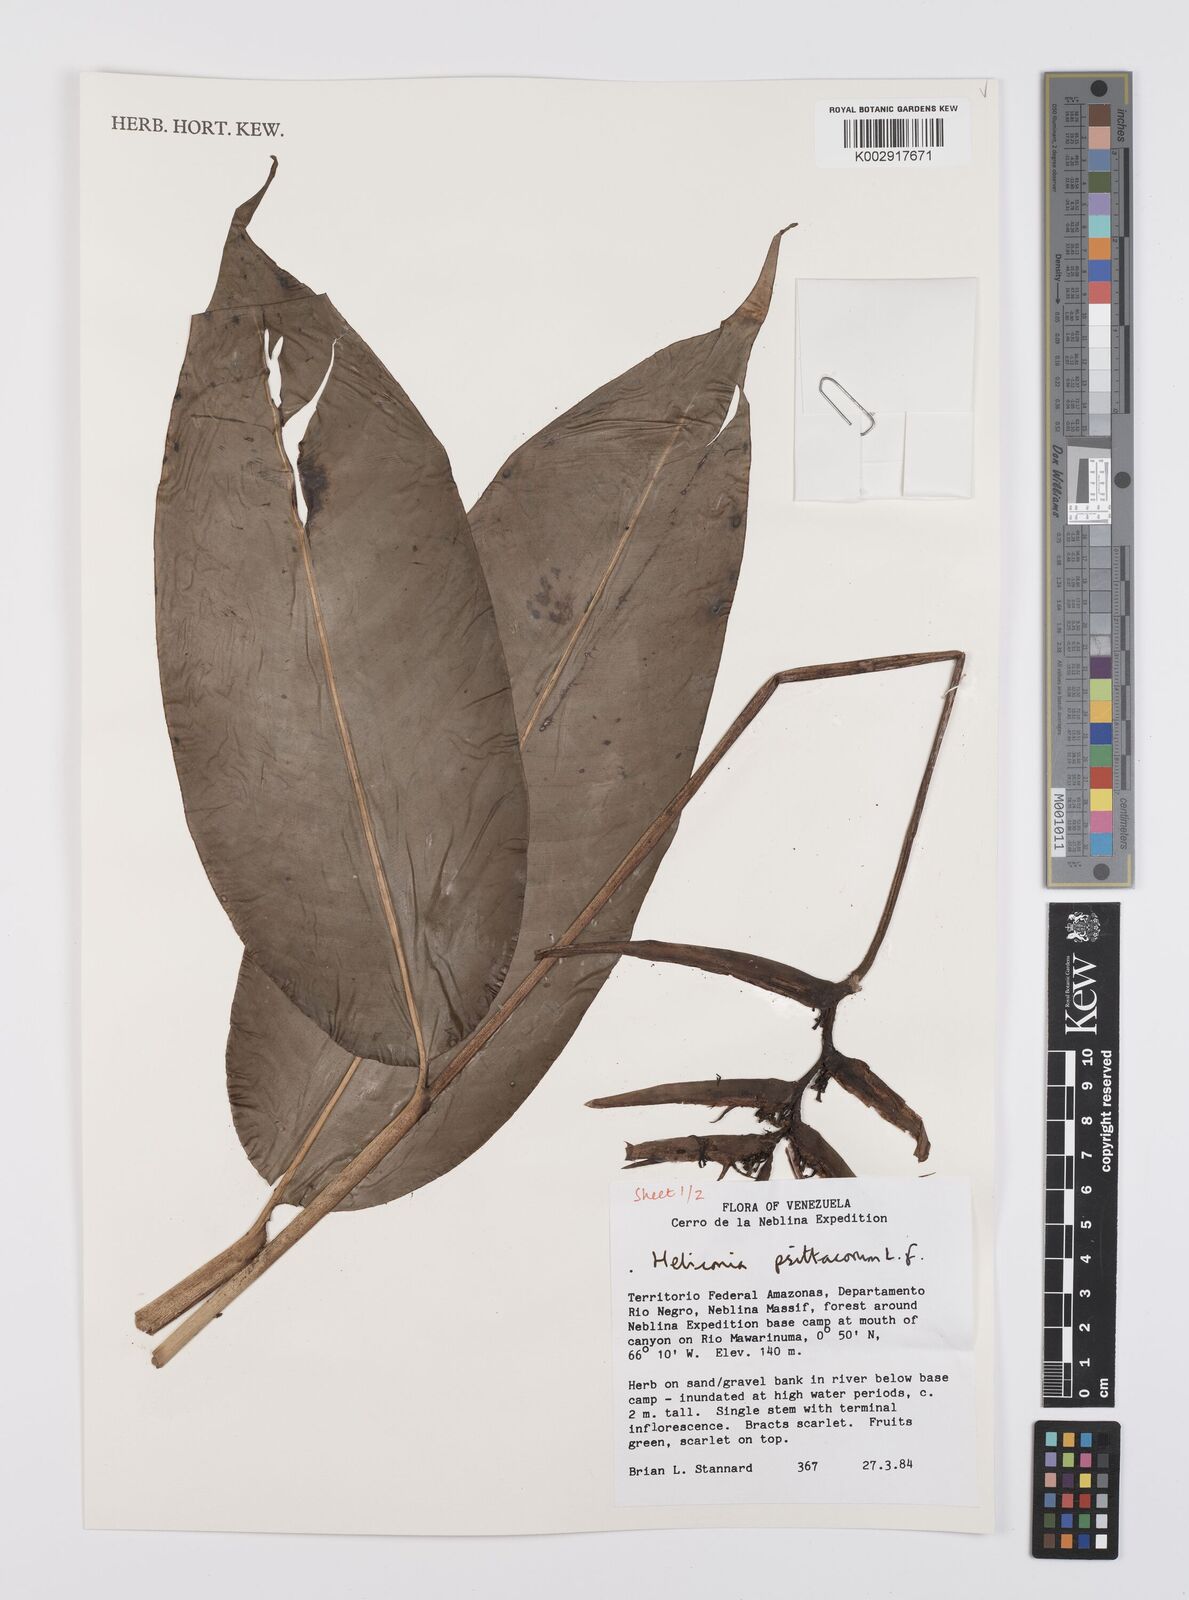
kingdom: Plantae
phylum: Tracheophyta
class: Liliopsida
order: Zingiberales
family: Heliconiaceae
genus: Heliconia
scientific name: Heliconia psittacorum
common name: Parrot's-flower
